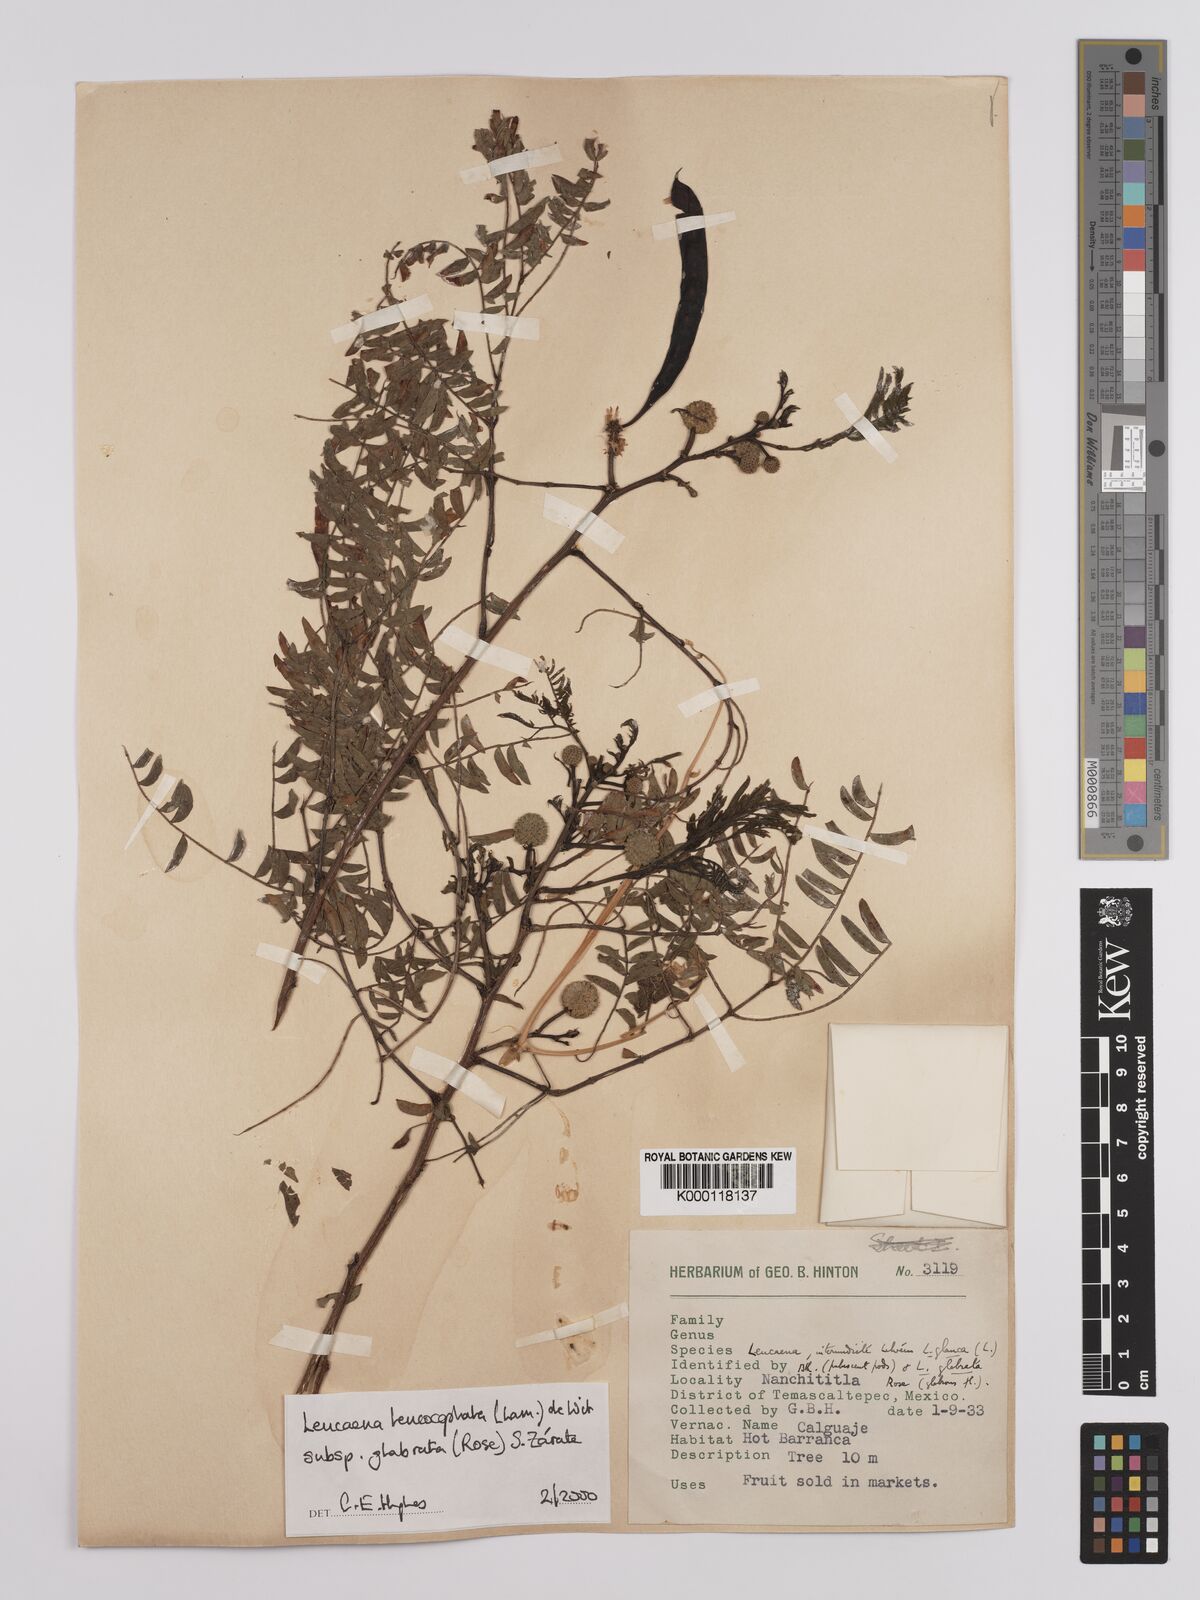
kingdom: Plantae
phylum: Tracheophyta
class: Magnoliopsida
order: Fabales
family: Fabaceae
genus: Leucaena
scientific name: Leucaena leucocephala
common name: White leadtree
